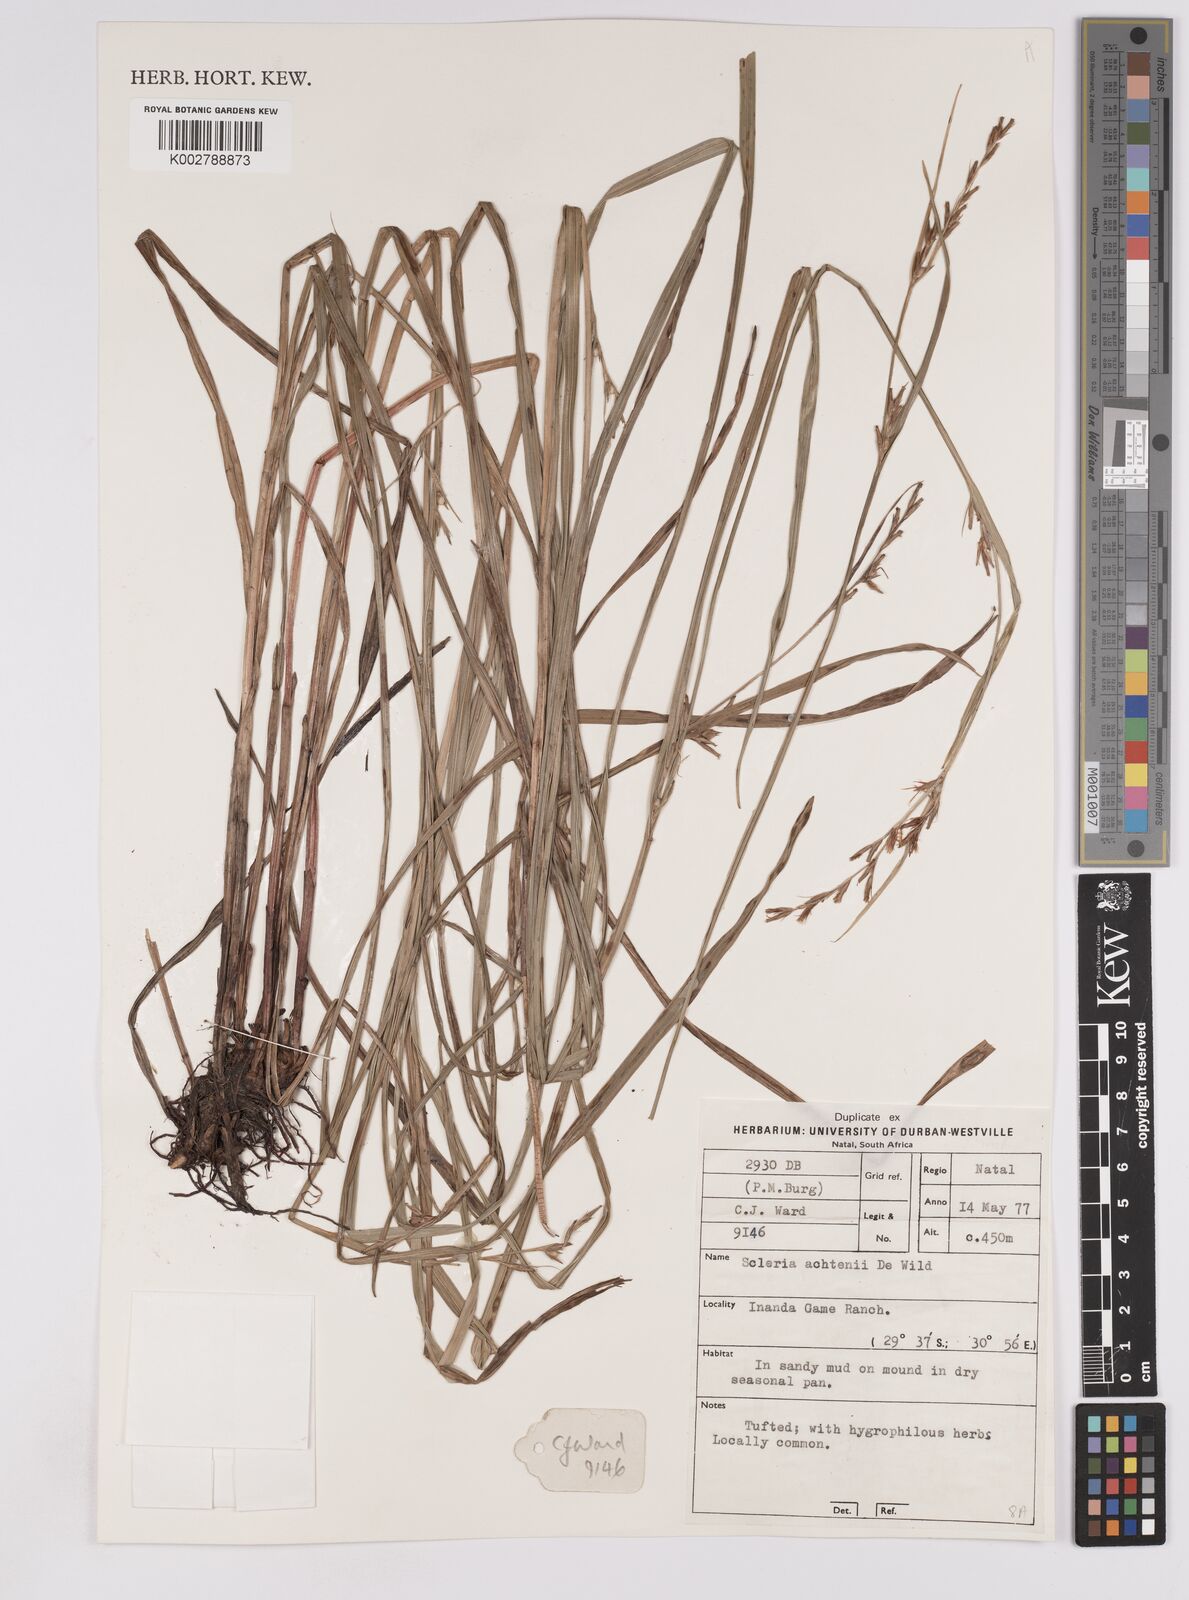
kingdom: Plantae
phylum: Tracheophyta
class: Liliopsida
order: Poales
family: Cyperaceae
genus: Scleria
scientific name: Scleria achtenii
